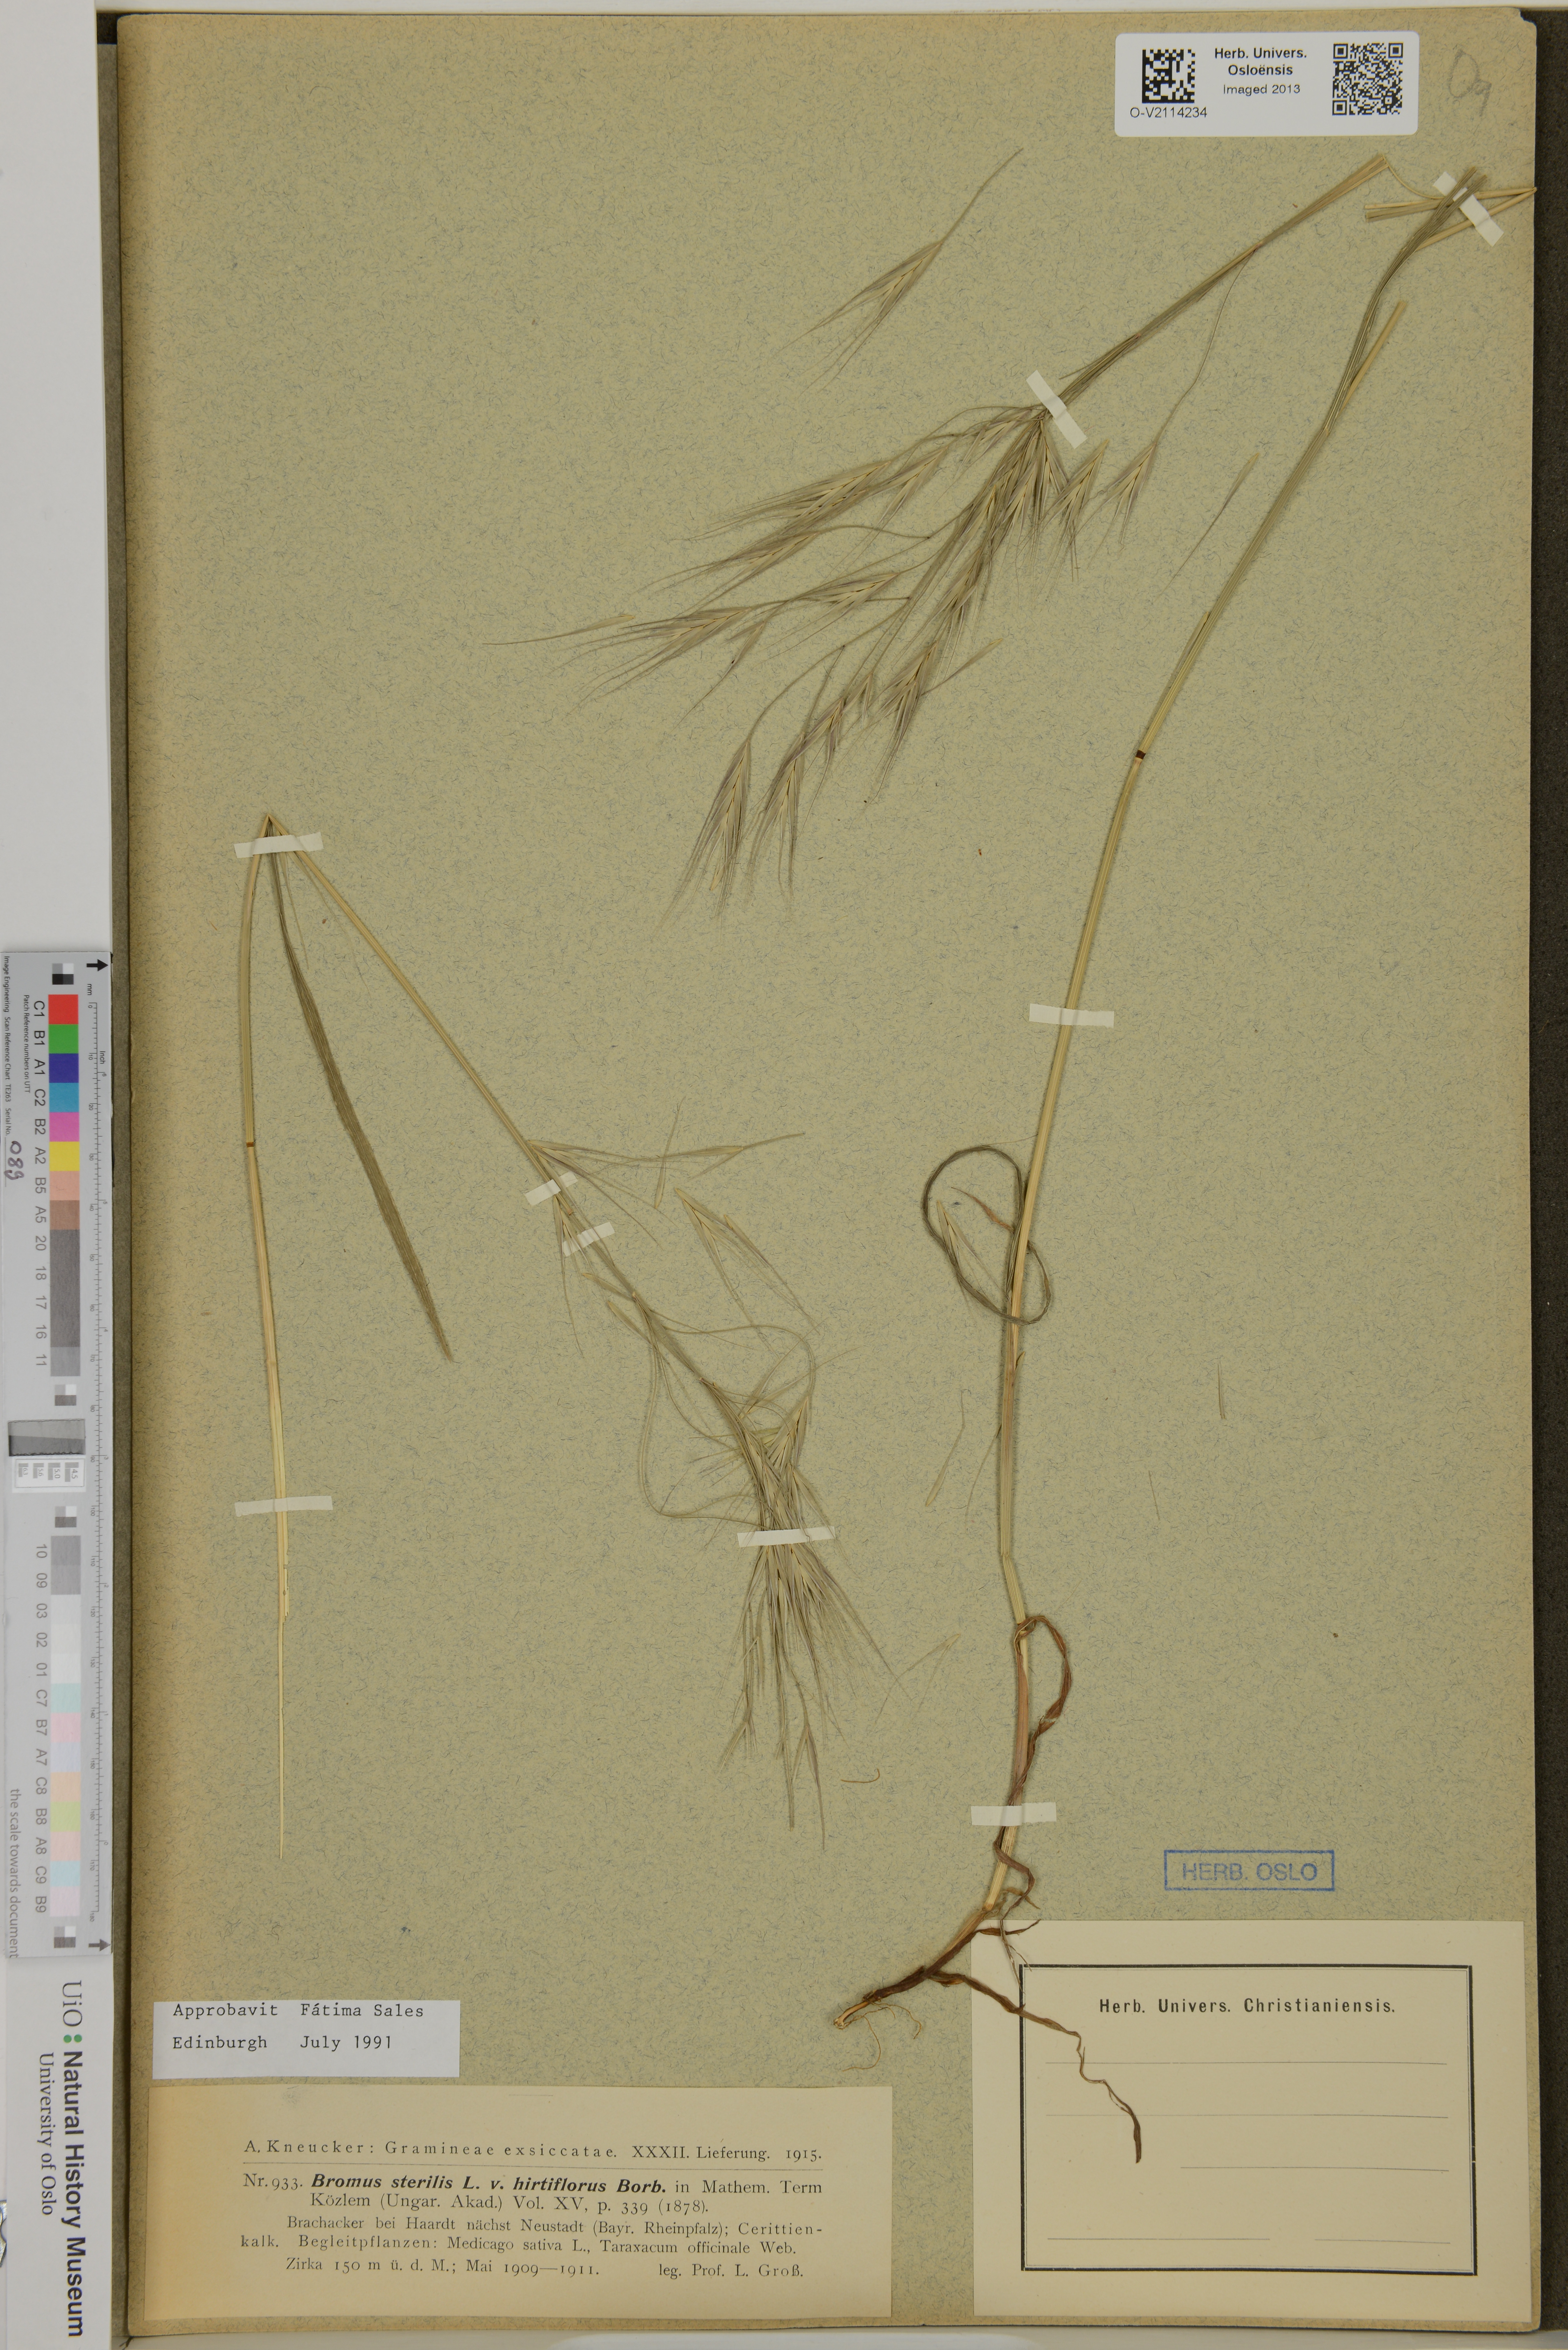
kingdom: Plantae
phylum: Tracheophyta
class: Liliopsida
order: Poales
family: Poaceae
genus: Bromus
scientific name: Bromus sterilis
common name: Poverty brome
